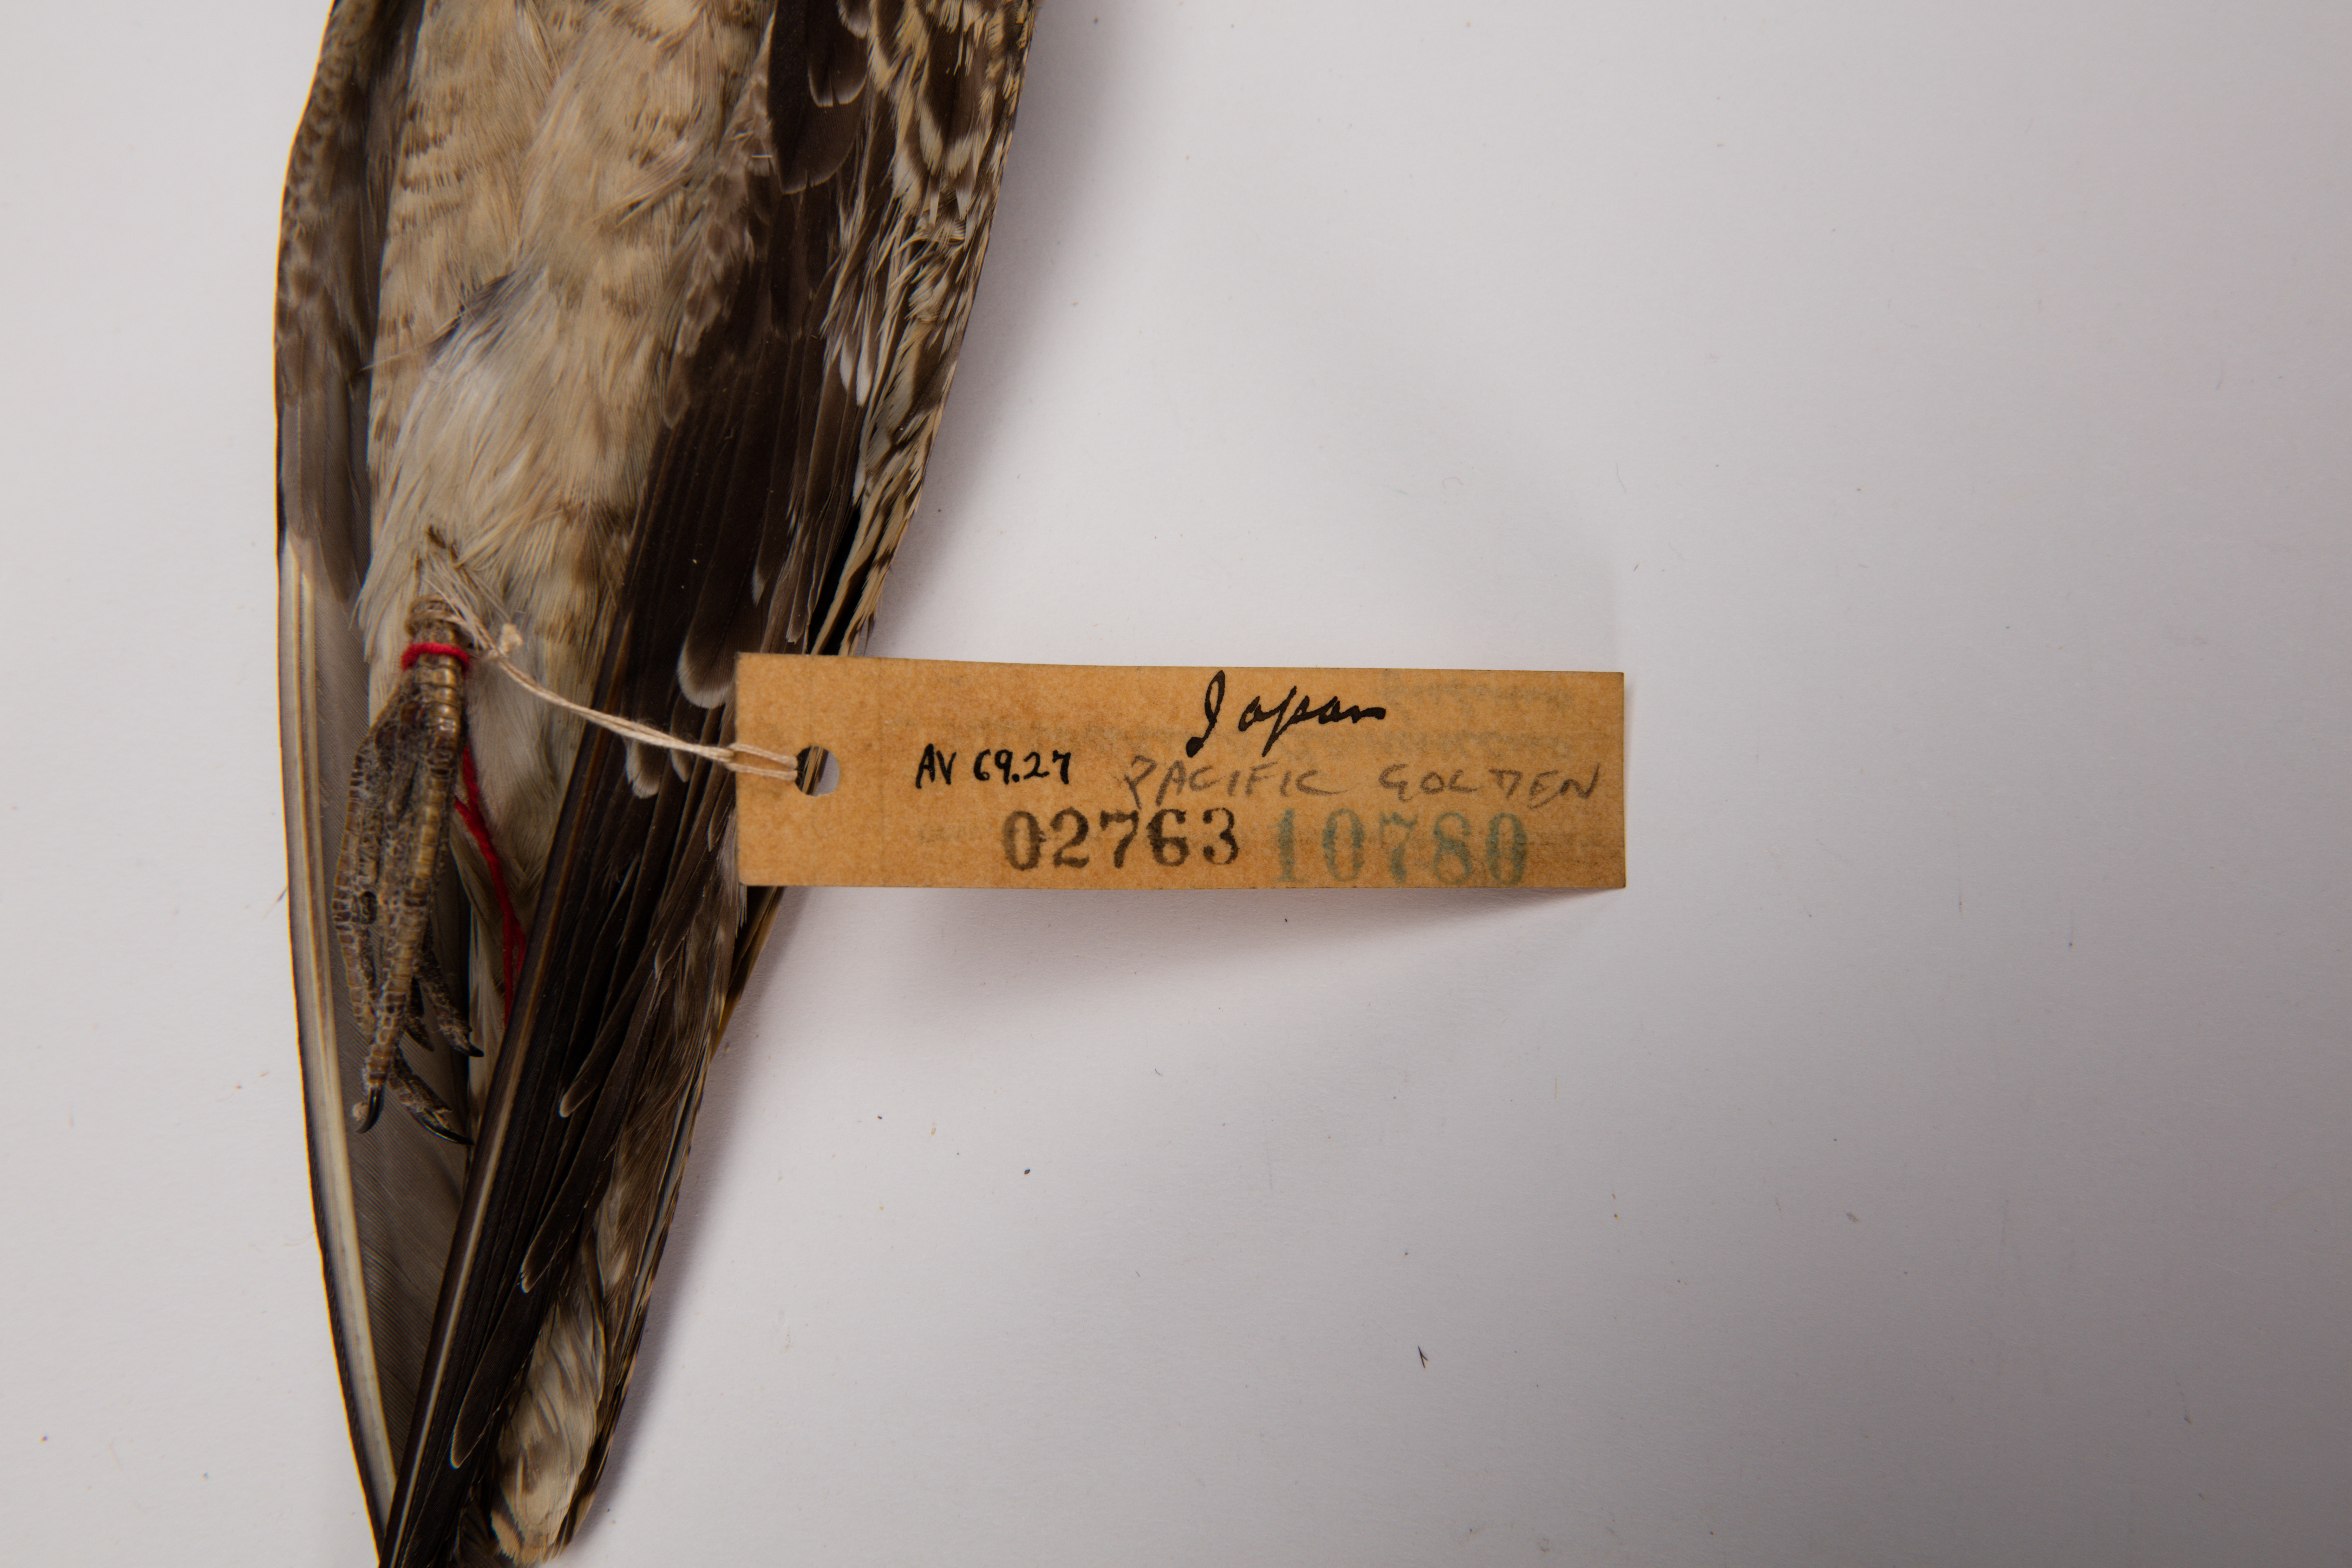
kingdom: Animalia
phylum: Chordata
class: Aves
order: Charadriiformes
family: Charadriidae
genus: Pluvialis
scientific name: Pluvialis fulva
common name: Pacific golden plover
